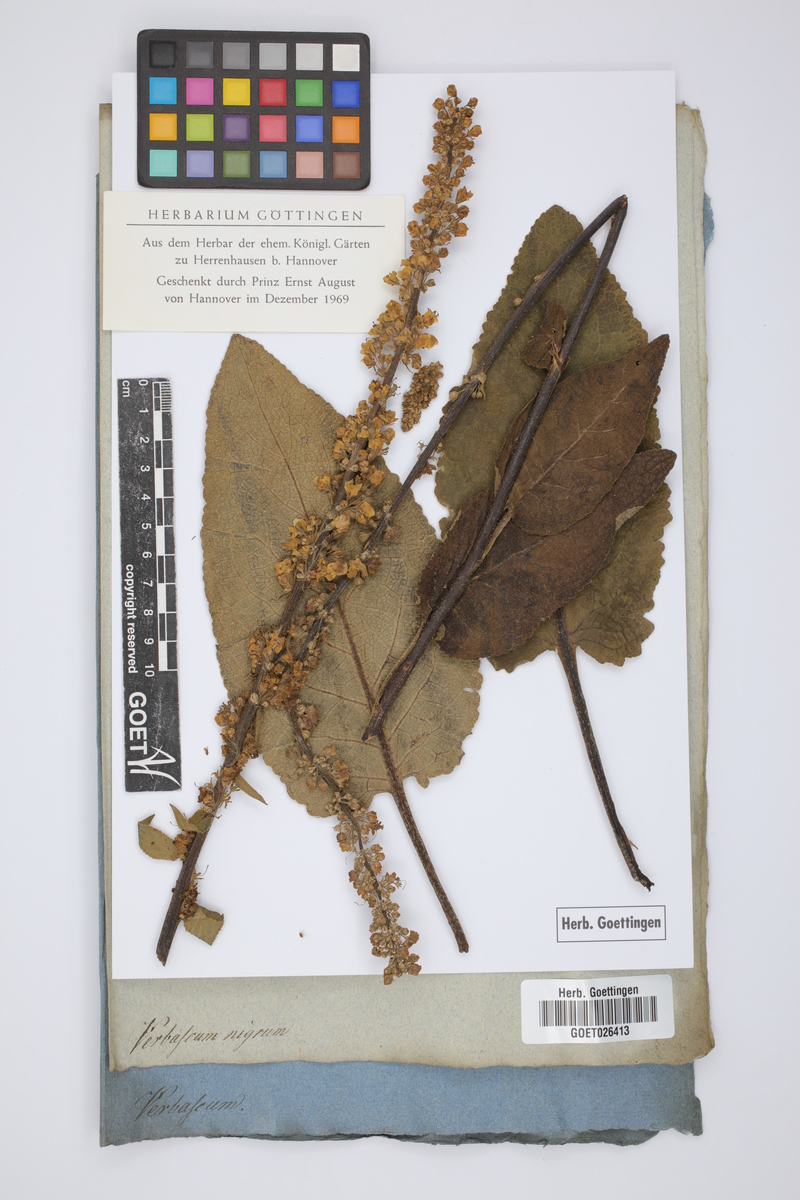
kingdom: Plantae
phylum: Tracheophyta
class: Magnoliopsida
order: Lamiales
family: Scrophulariaceae
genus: Verbascum
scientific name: Verbascum nigrum
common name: Dark mullein
